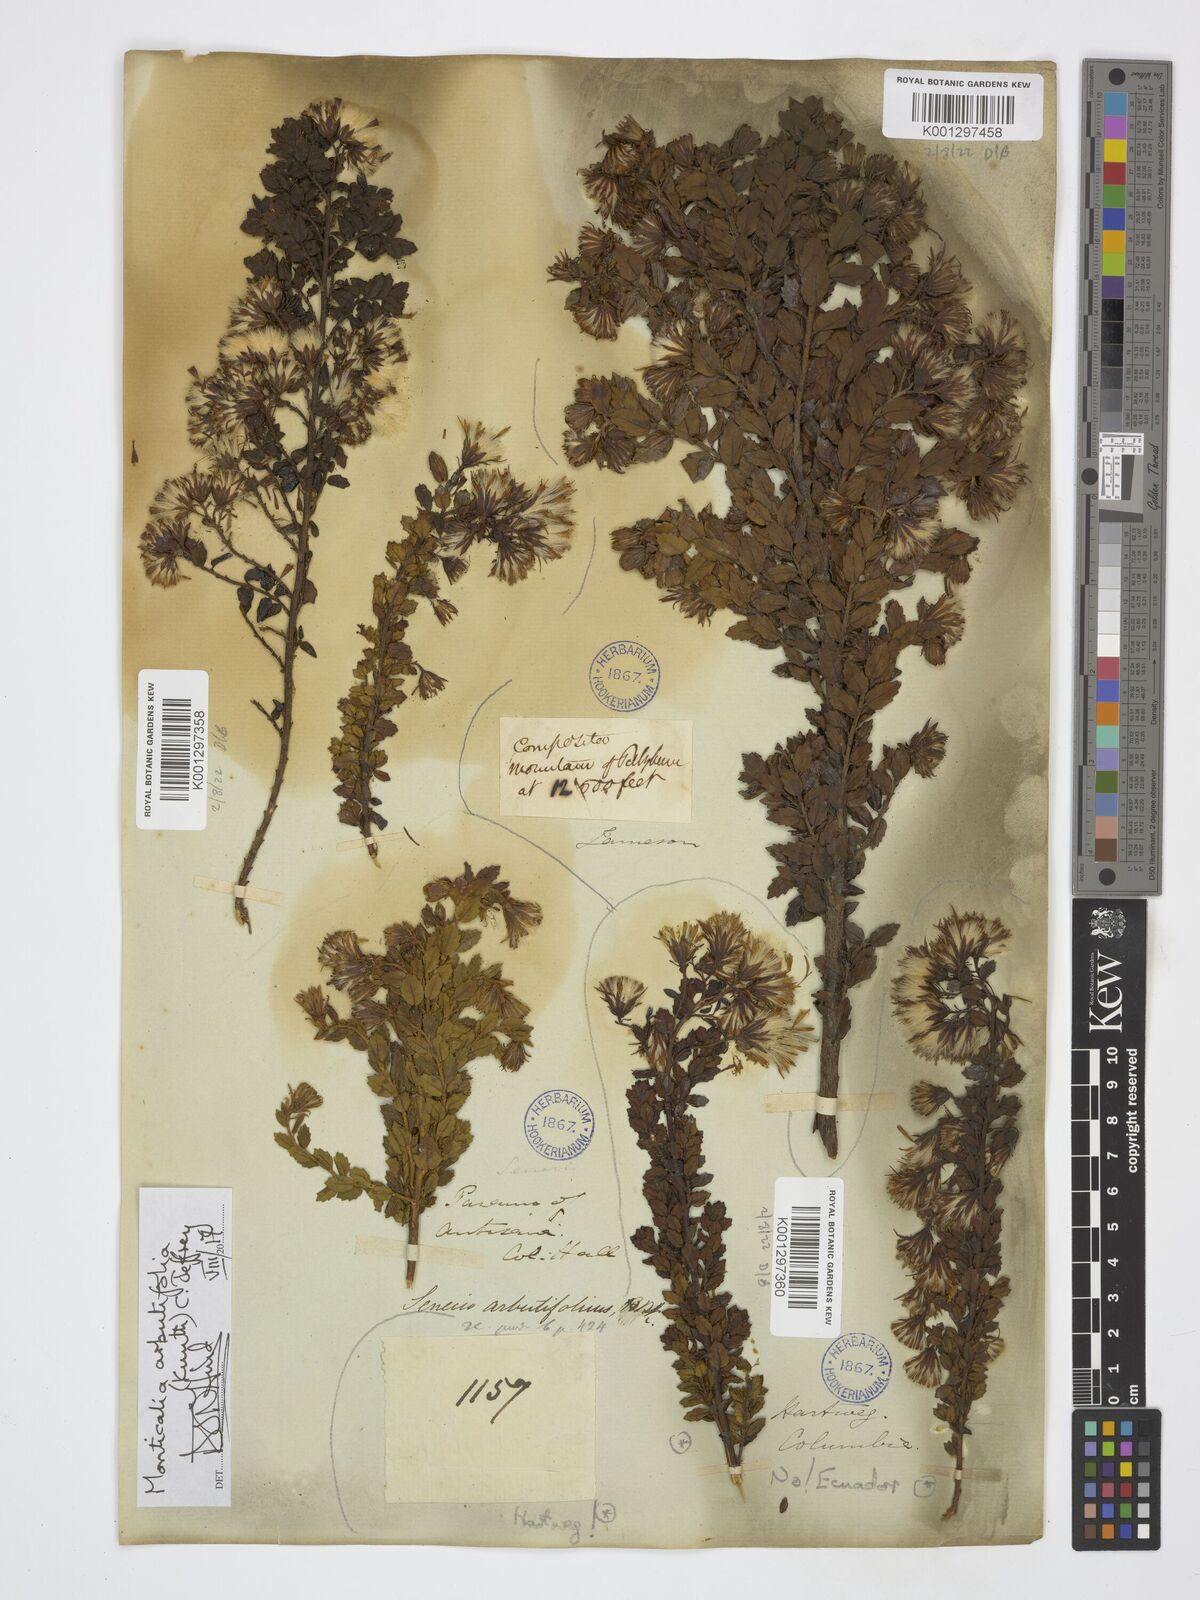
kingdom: Plantae
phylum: Tracheophyta
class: Magnoliopsida
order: Asterales
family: Asteraceae
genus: Monticalia
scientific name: Monticalia arbutifolia
